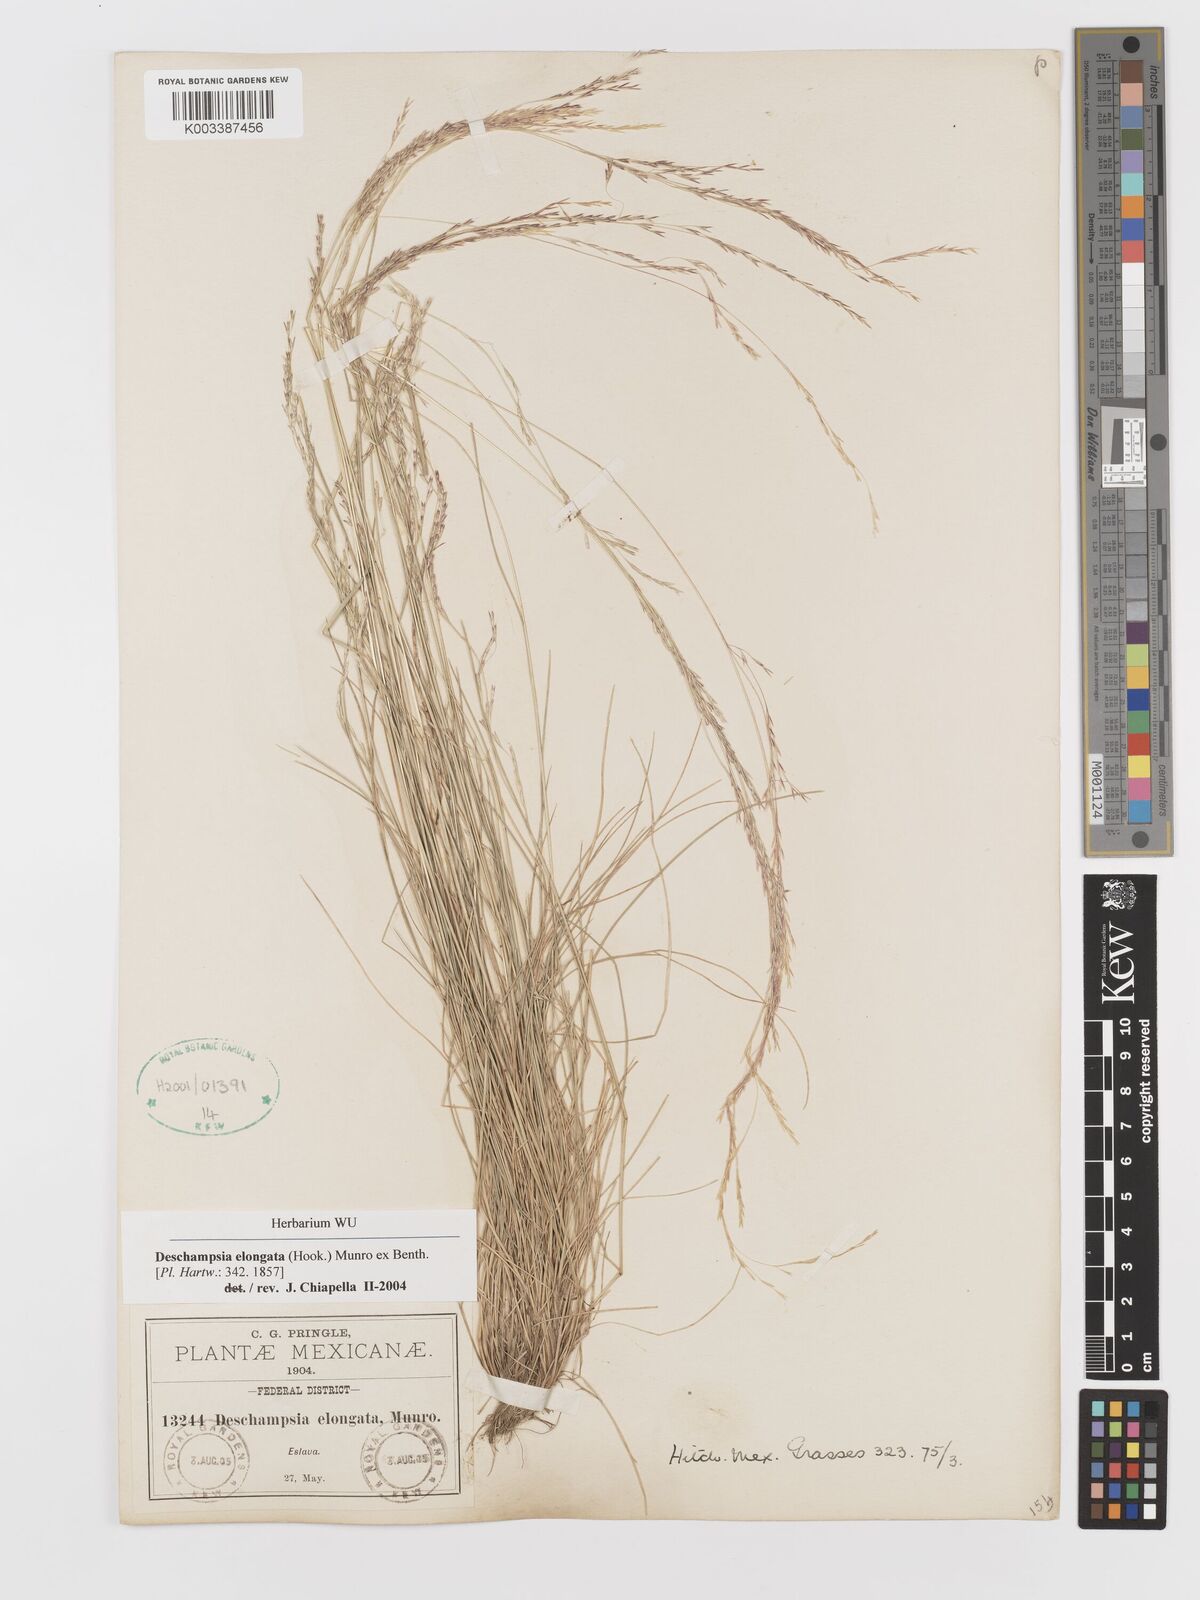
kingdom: Plantae
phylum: Tracheophyta
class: Liliopsida
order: Poales
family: Poaceae
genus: Deschampsia
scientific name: Deschampsia elongata
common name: Slender hairgrass
